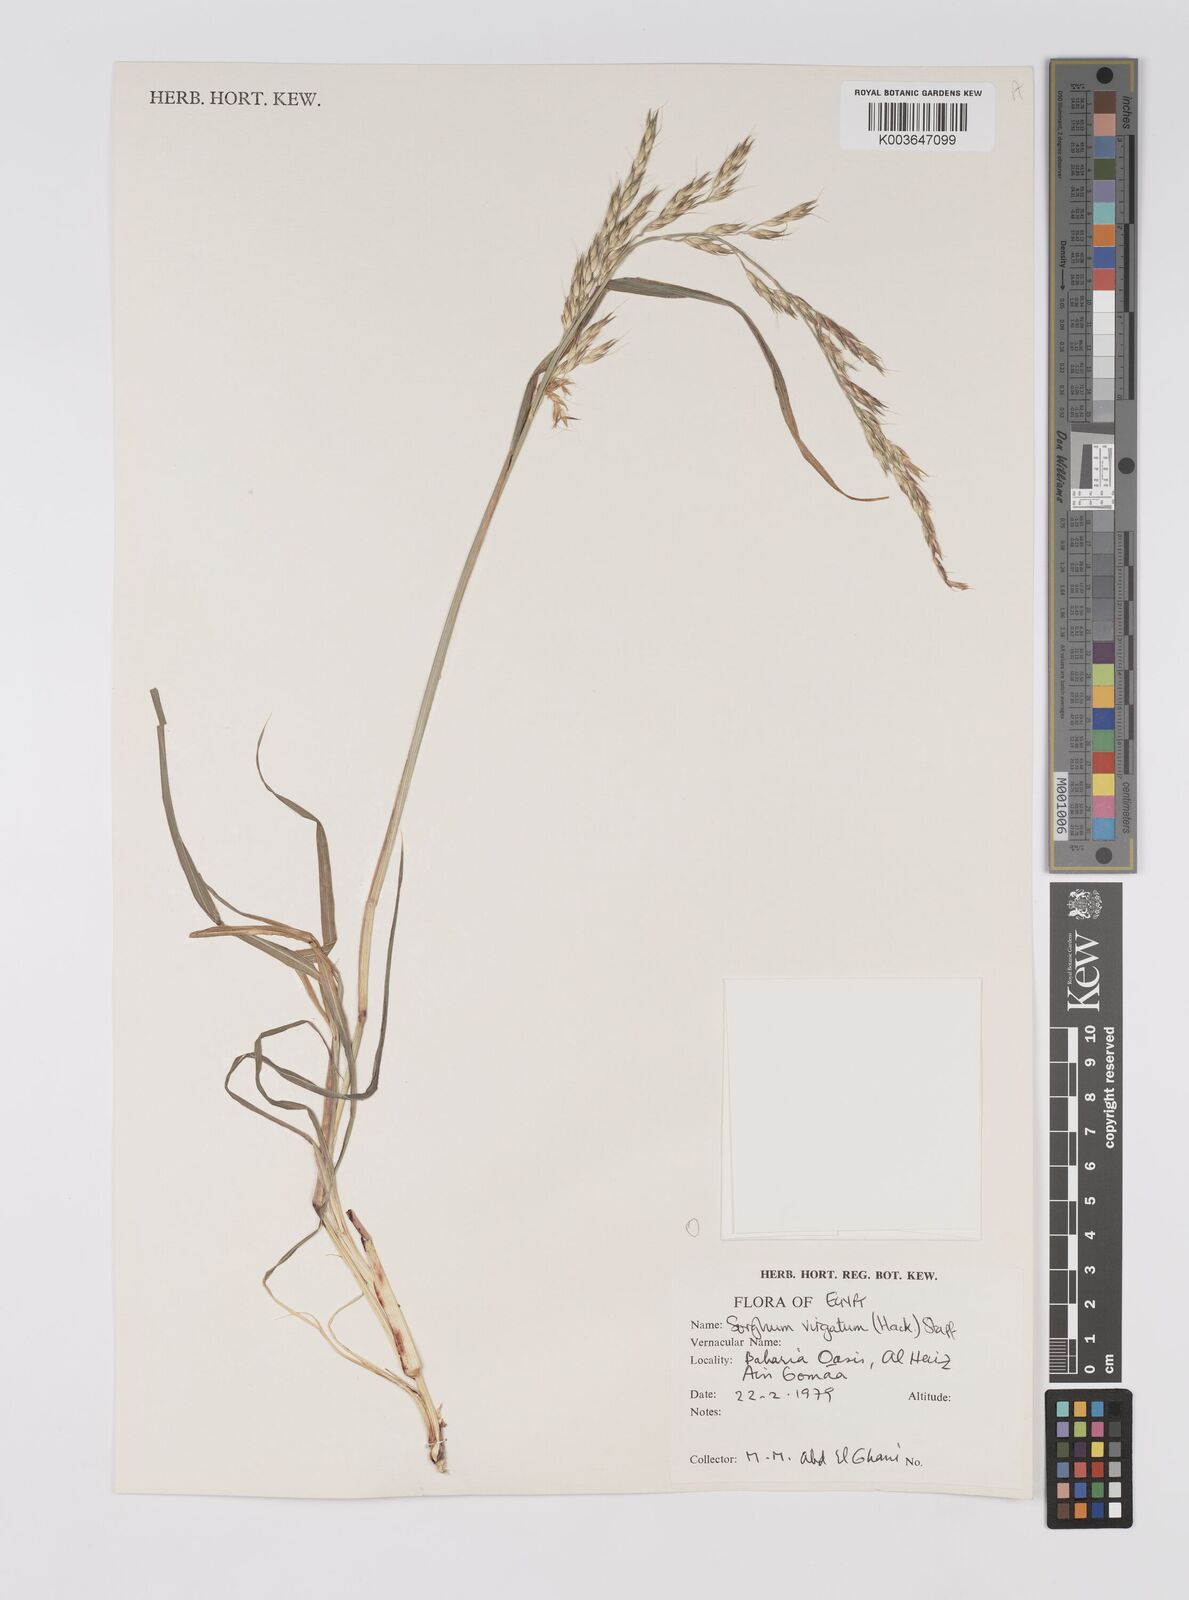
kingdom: Plantae
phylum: Tracheophyta
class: Liliopsida
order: Poales
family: Poaceae
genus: Sorghum
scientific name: Sorghum virgatum
